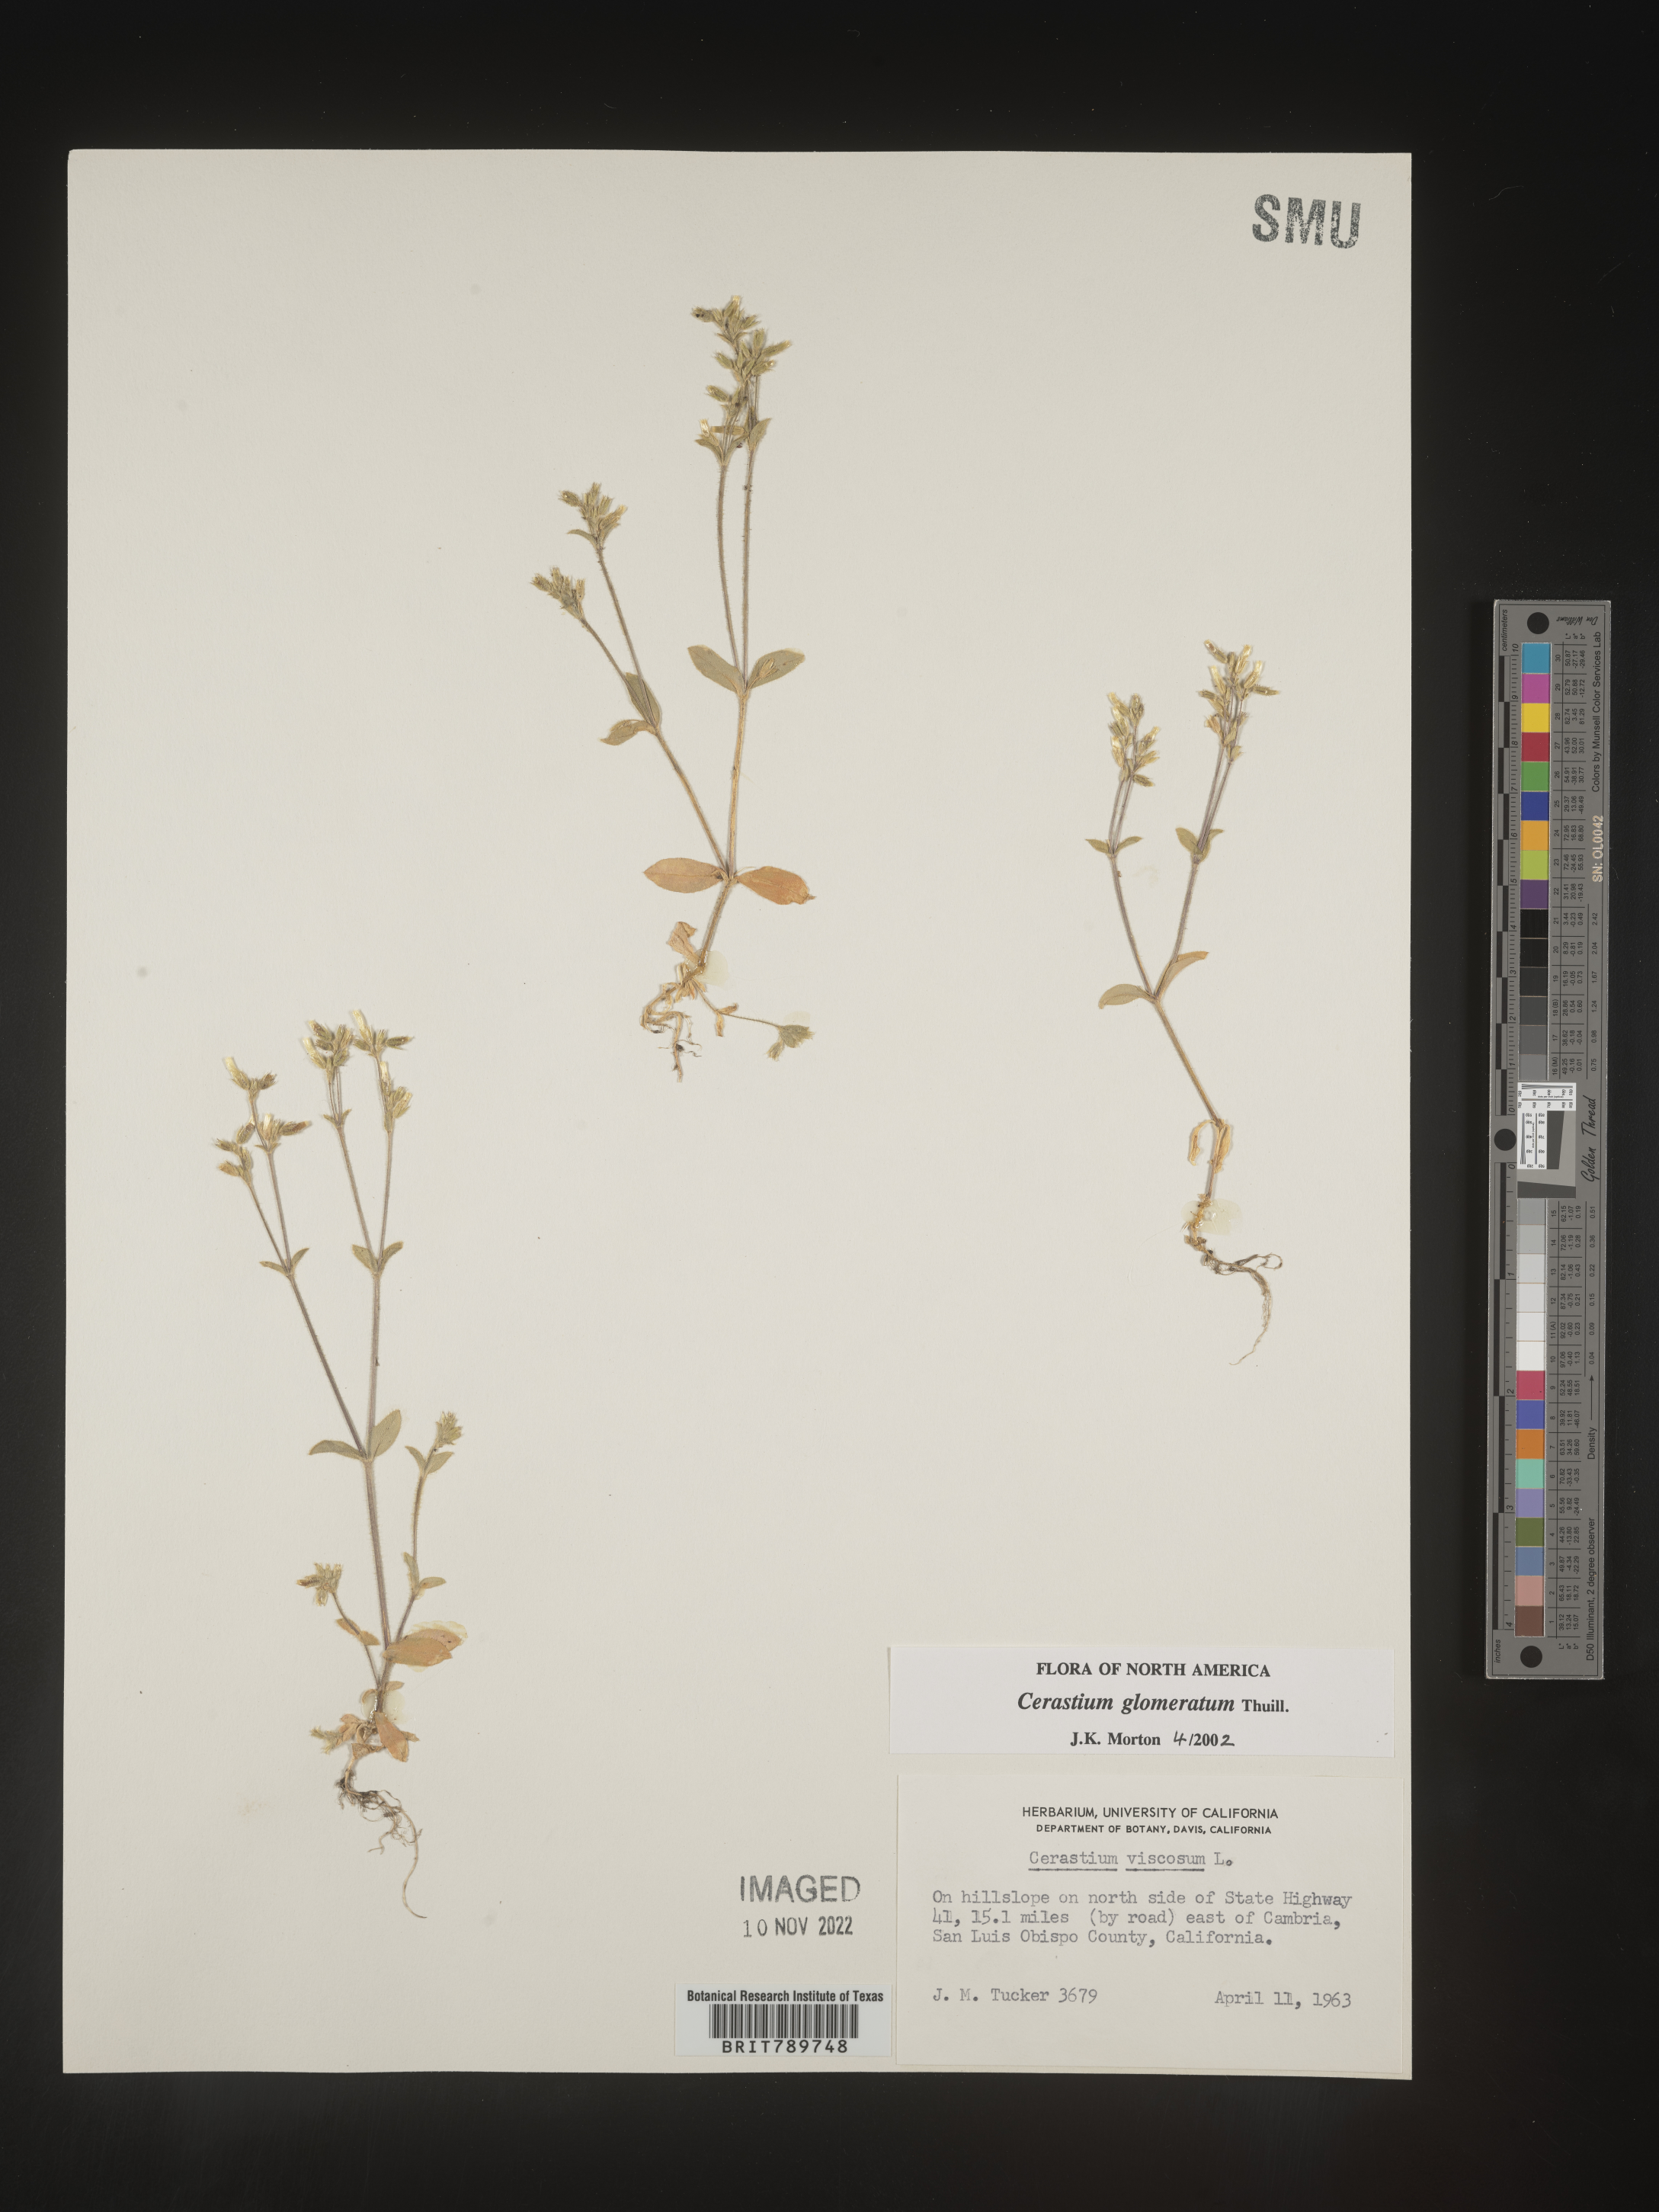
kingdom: Plantae
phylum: Tracheophyta
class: Magnoliopsida
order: Caryophyllales
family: Caryophyllaceae
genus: Cerastium
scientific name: Cerastium glomeratum
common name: Sticky chickweed
